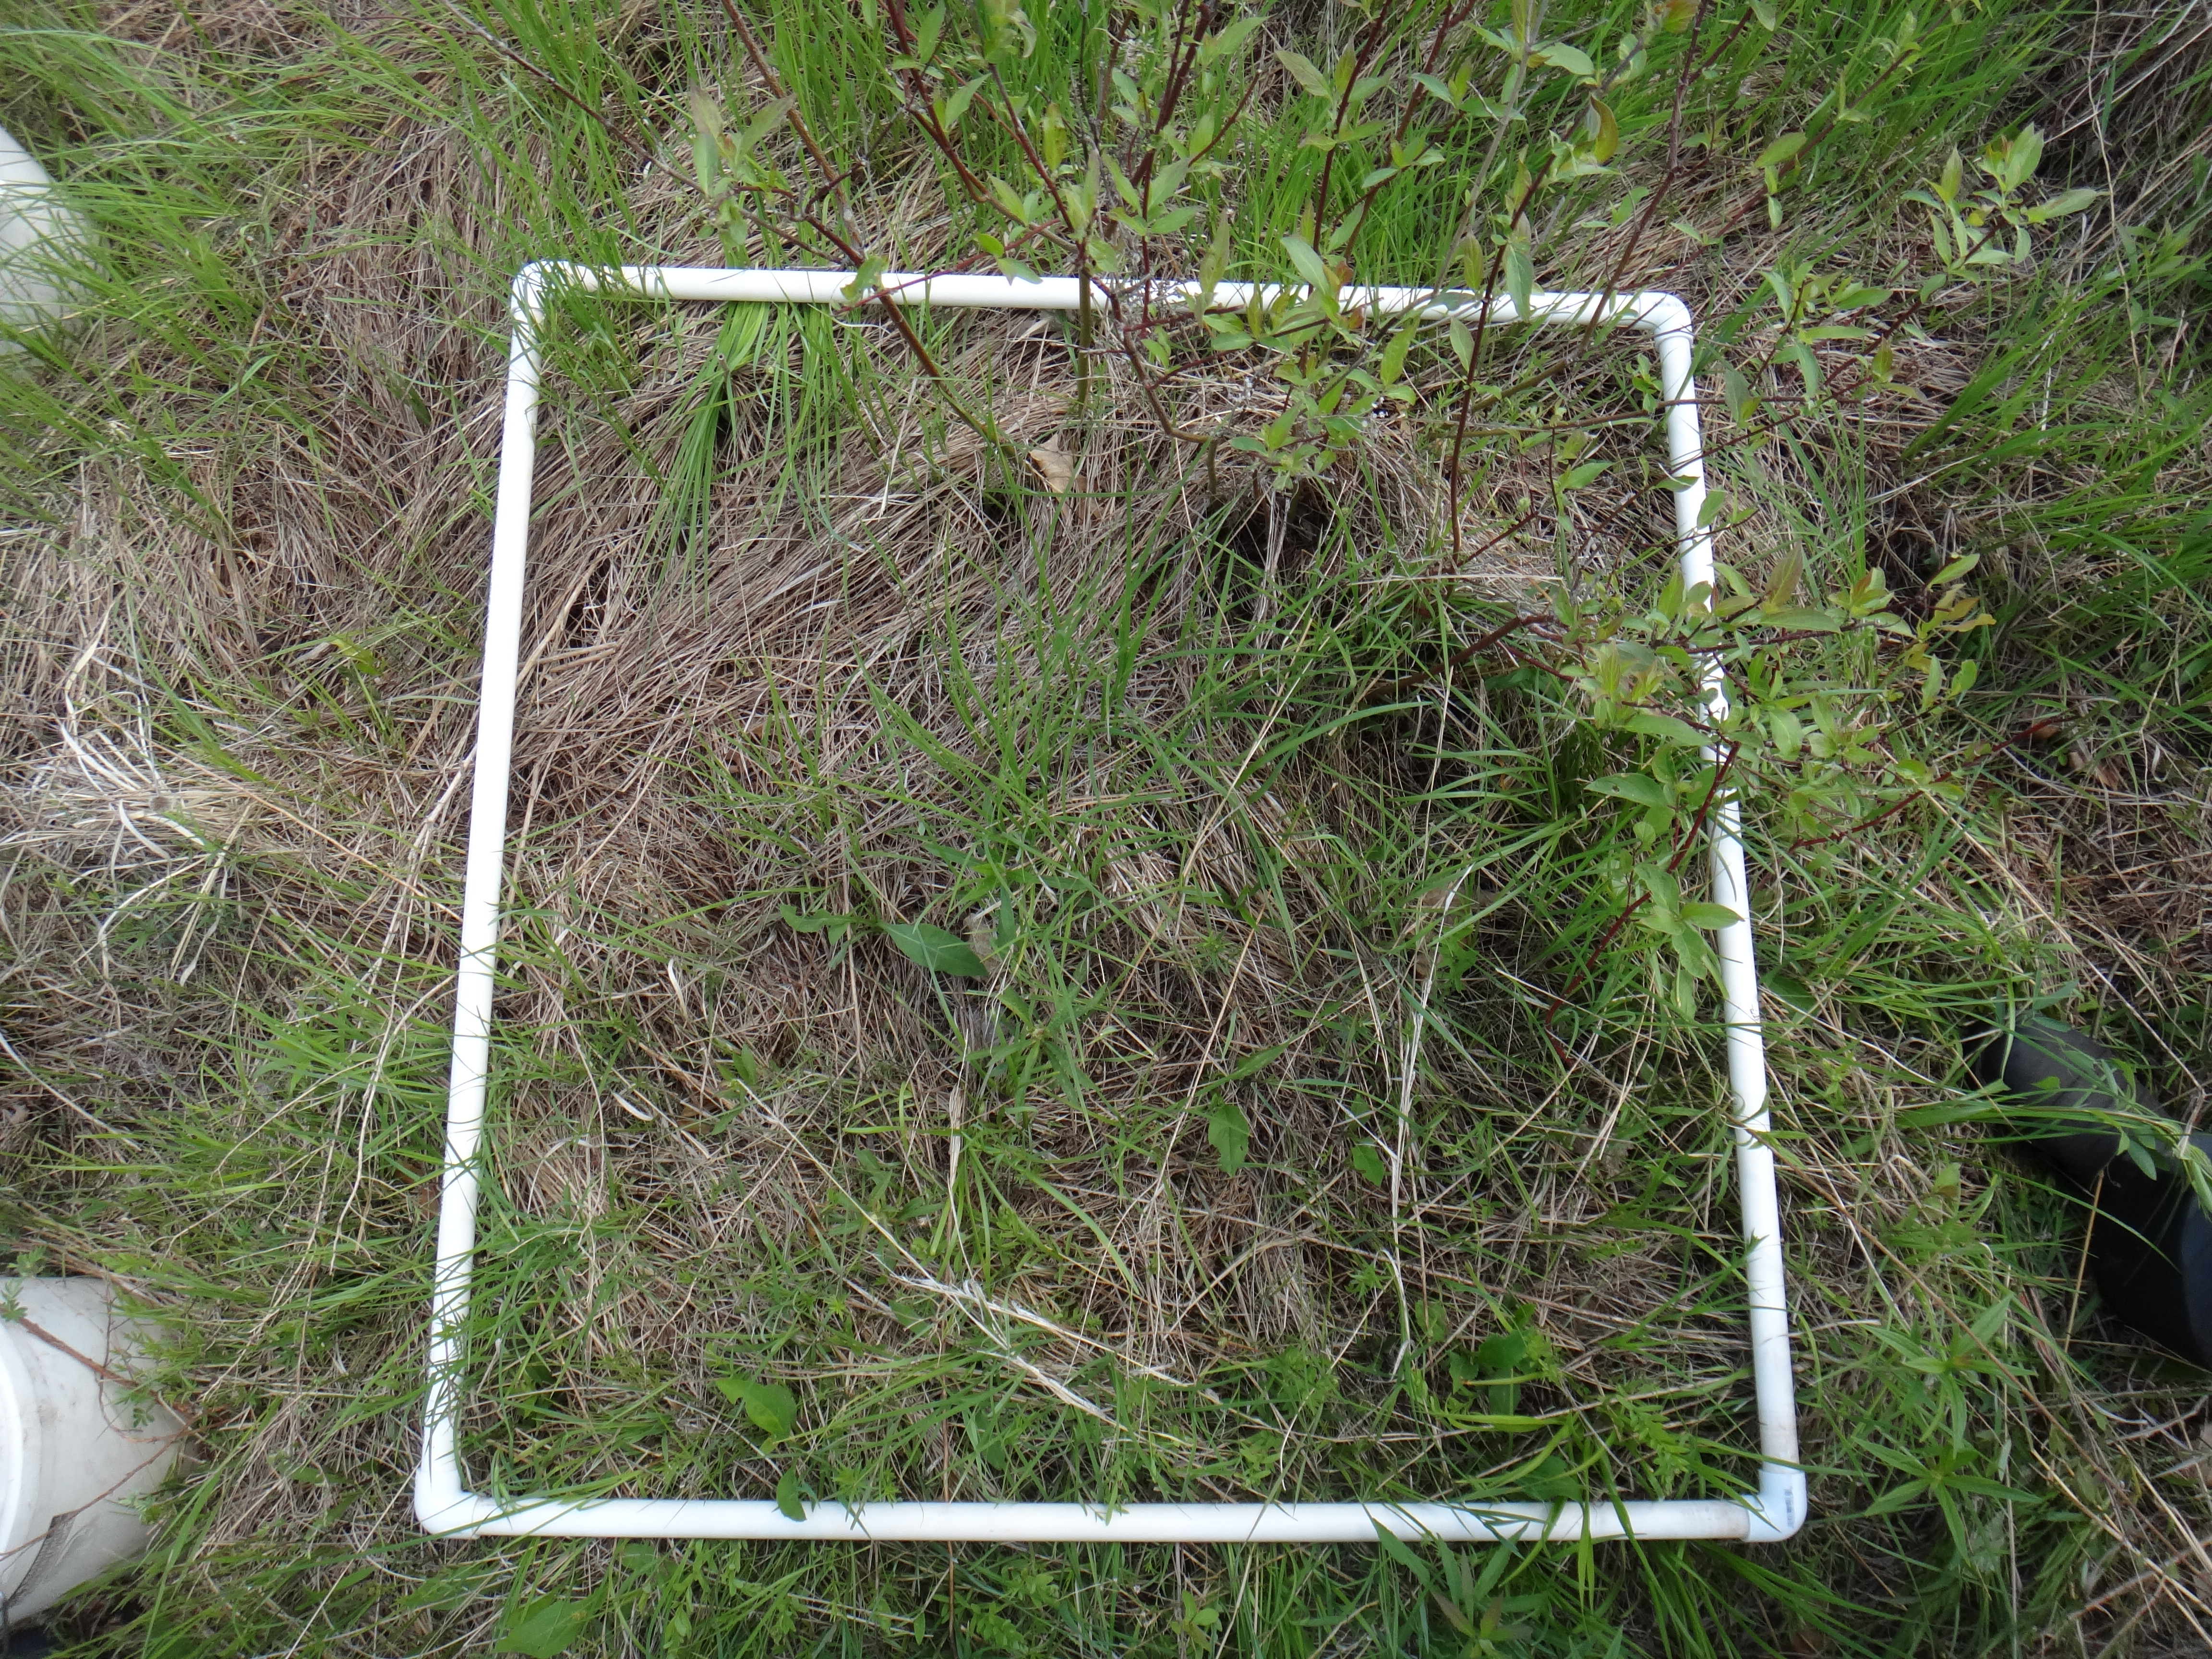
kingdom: Plantae
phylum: Tracheophyta
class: Magnoliopsida
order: Gentianales
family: Rubiaceae
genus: Galium
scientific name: Galium boreale
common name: Northern bedstraw
